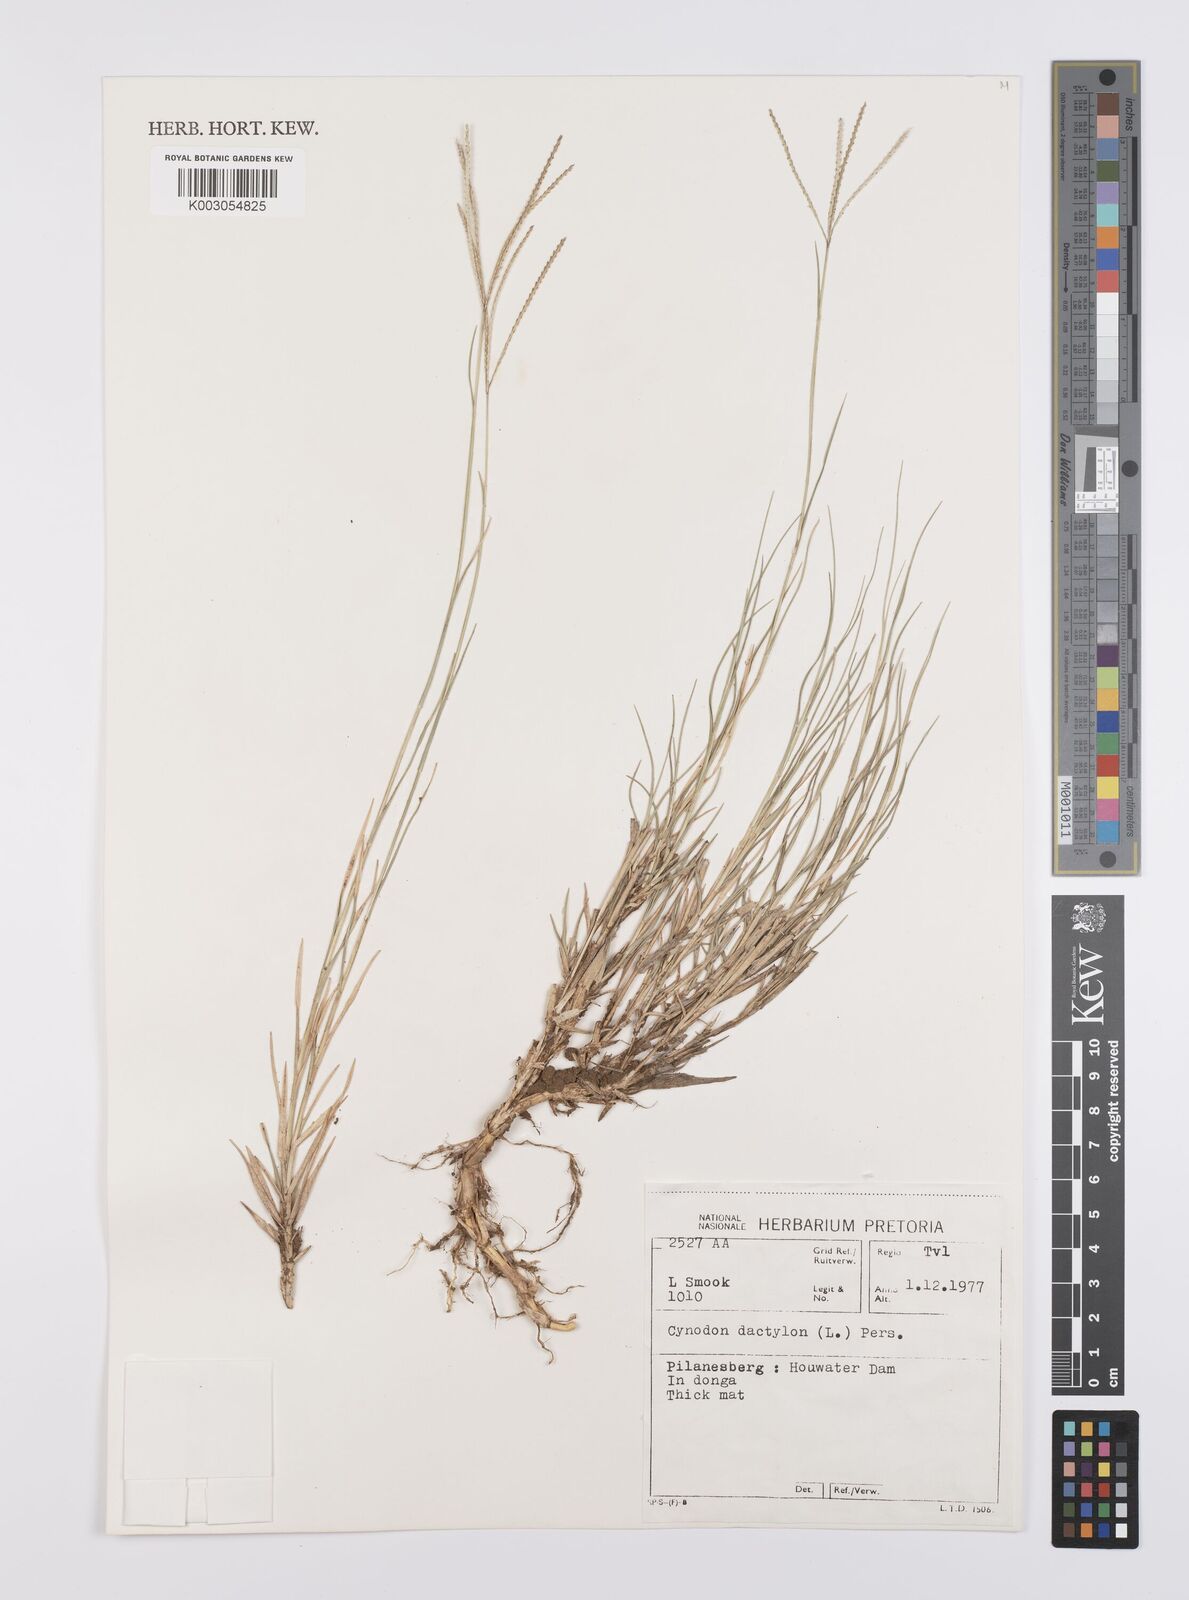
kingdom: Plantae
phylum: Tracheophyta
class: Liliopsida
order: Poales
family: Poaceae
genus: Cynodon
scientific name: Cynodon dactylon
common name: Bermuda grass
